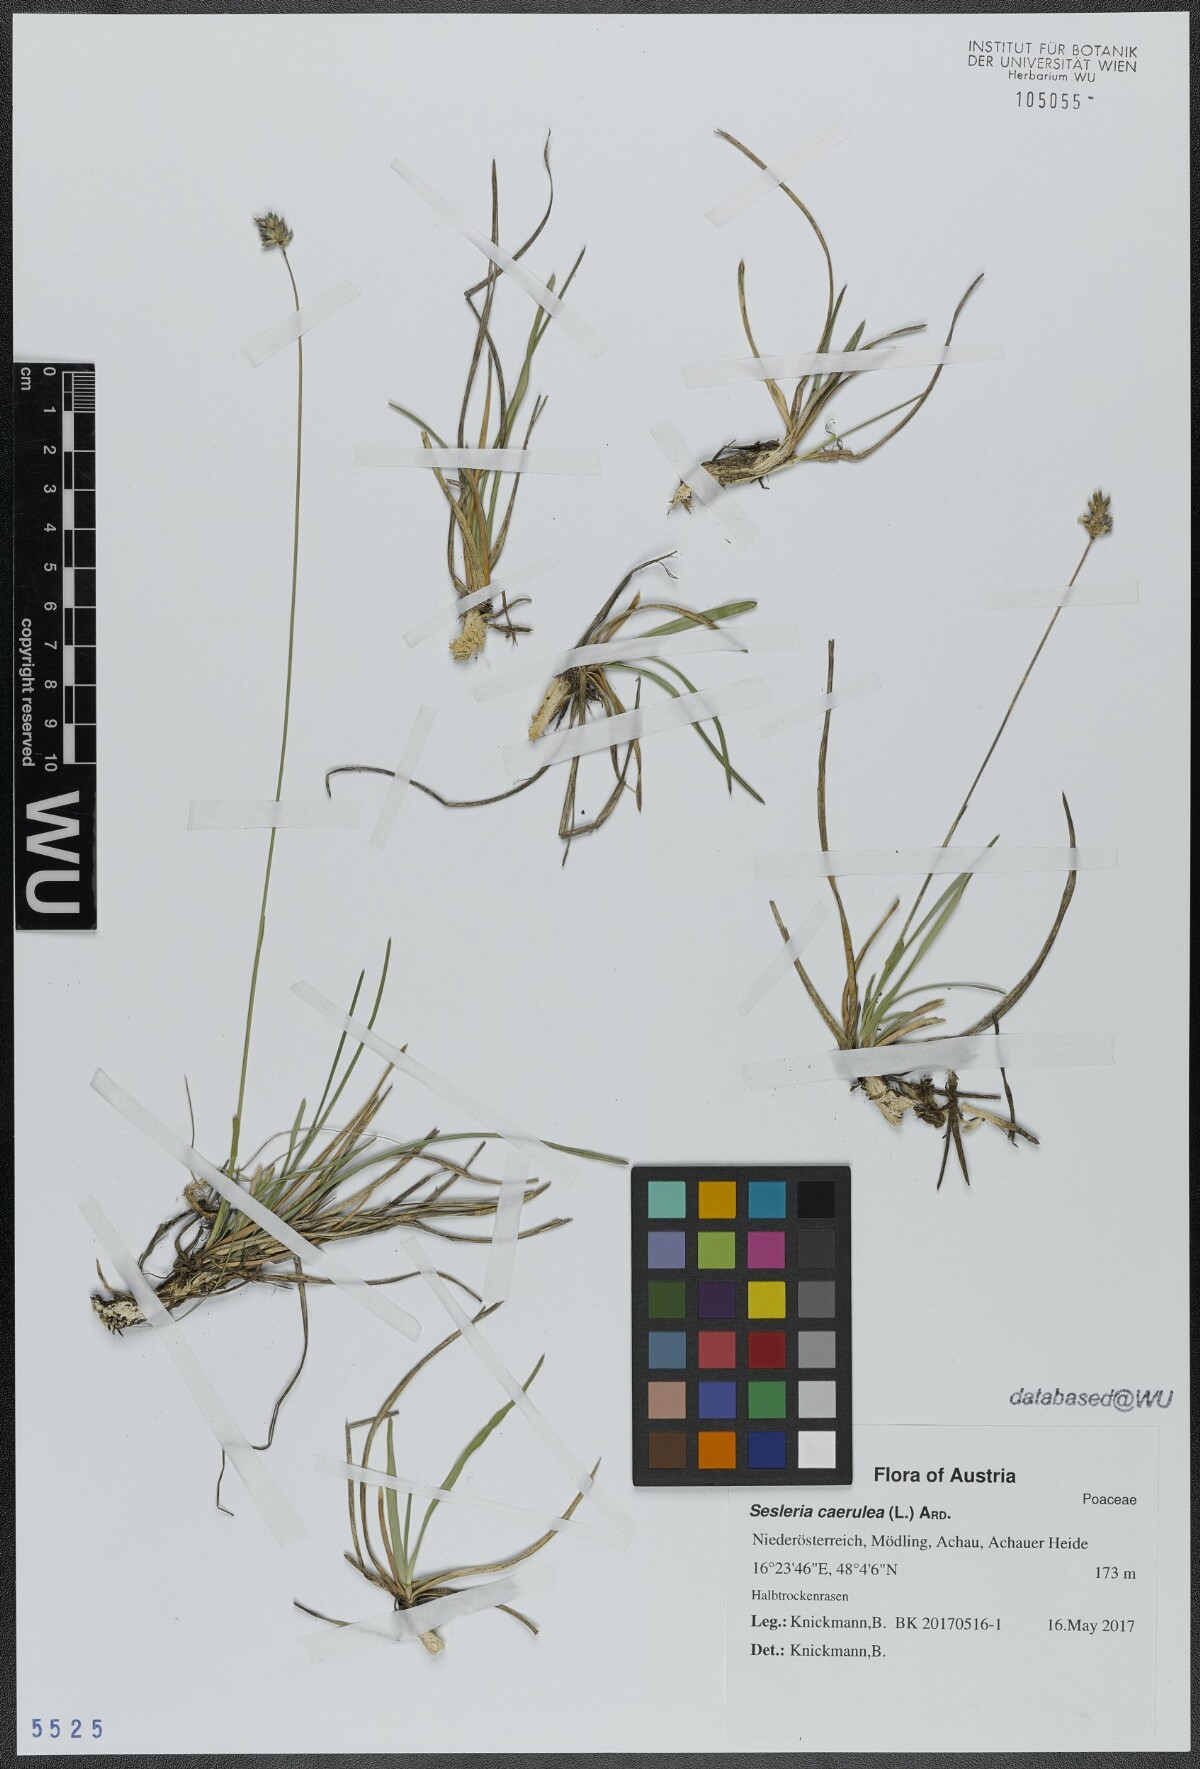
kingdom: Plantae
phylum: Tracheophyta
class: Liliopsida
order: Poales
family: Poaceae
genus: Sesleria
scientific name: Sesleria caerulea
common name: Blue moor-grass
